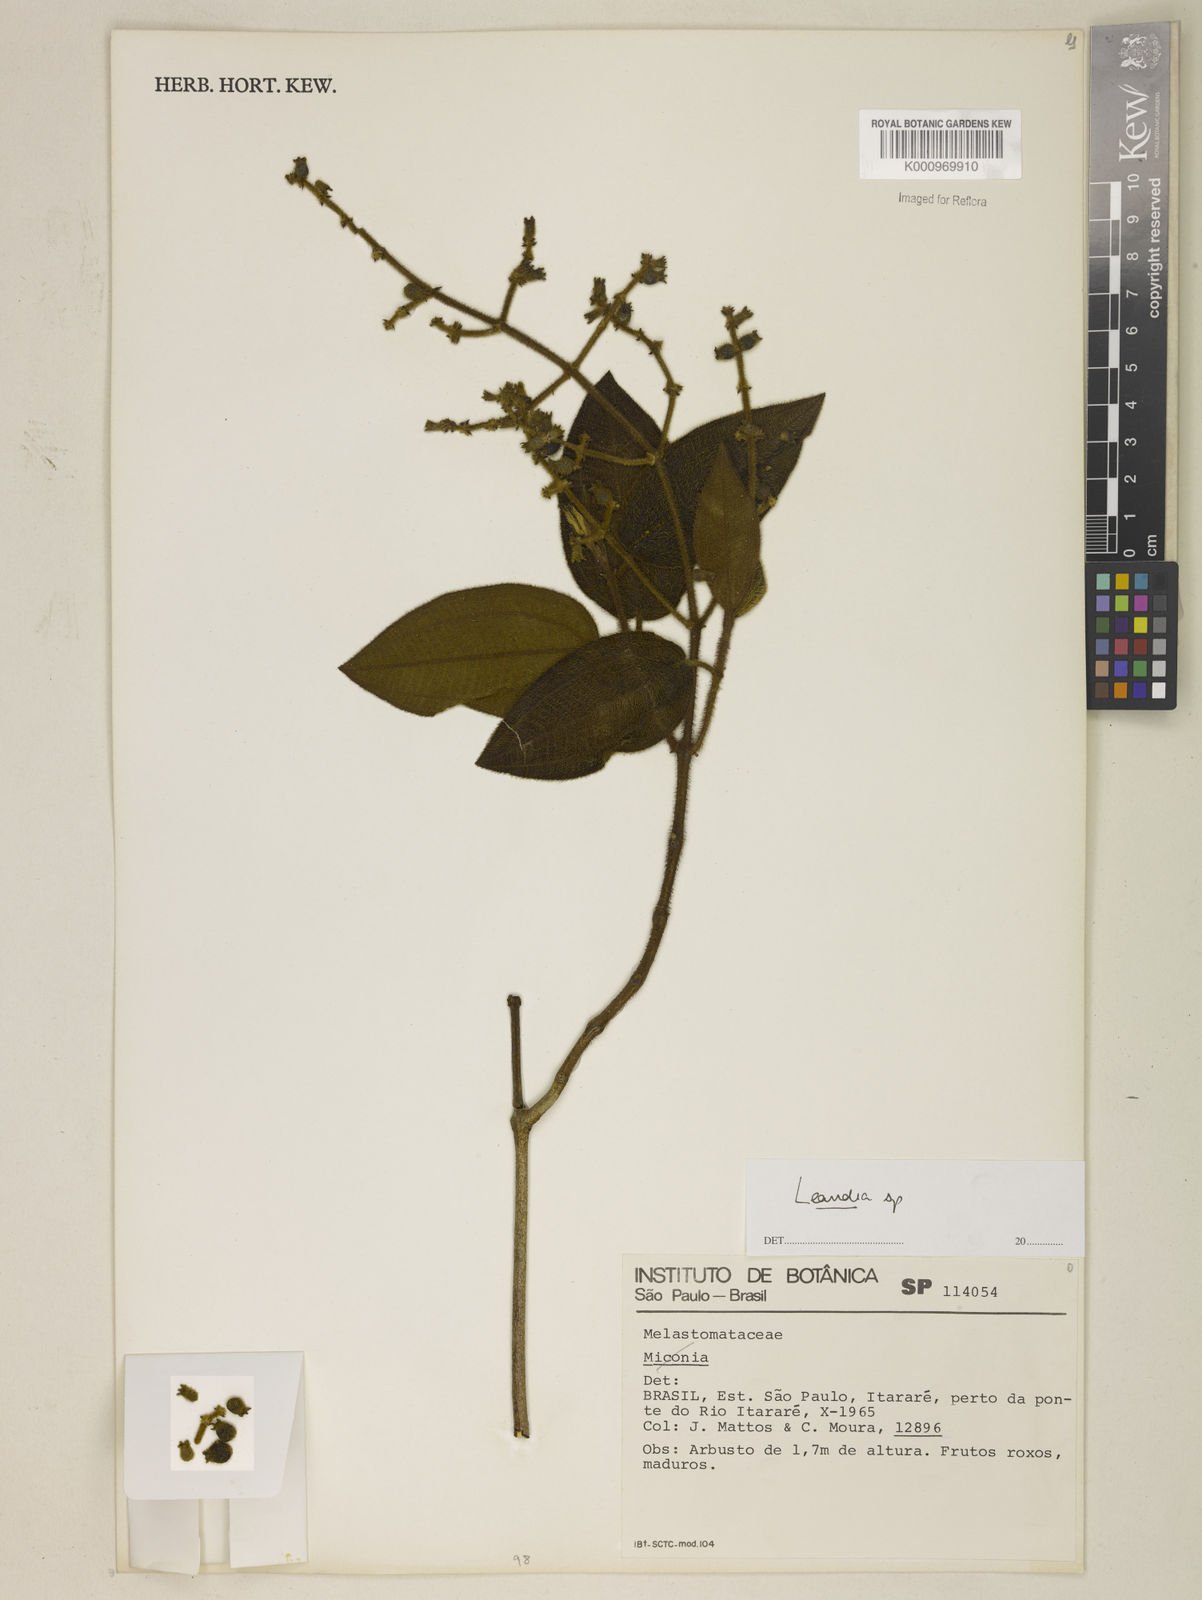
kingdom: Plantae
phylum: Tracheophyta
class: Magnoliopsida
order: Myrtales
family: Melastomataceae
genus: Miconia
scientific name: Miconia
